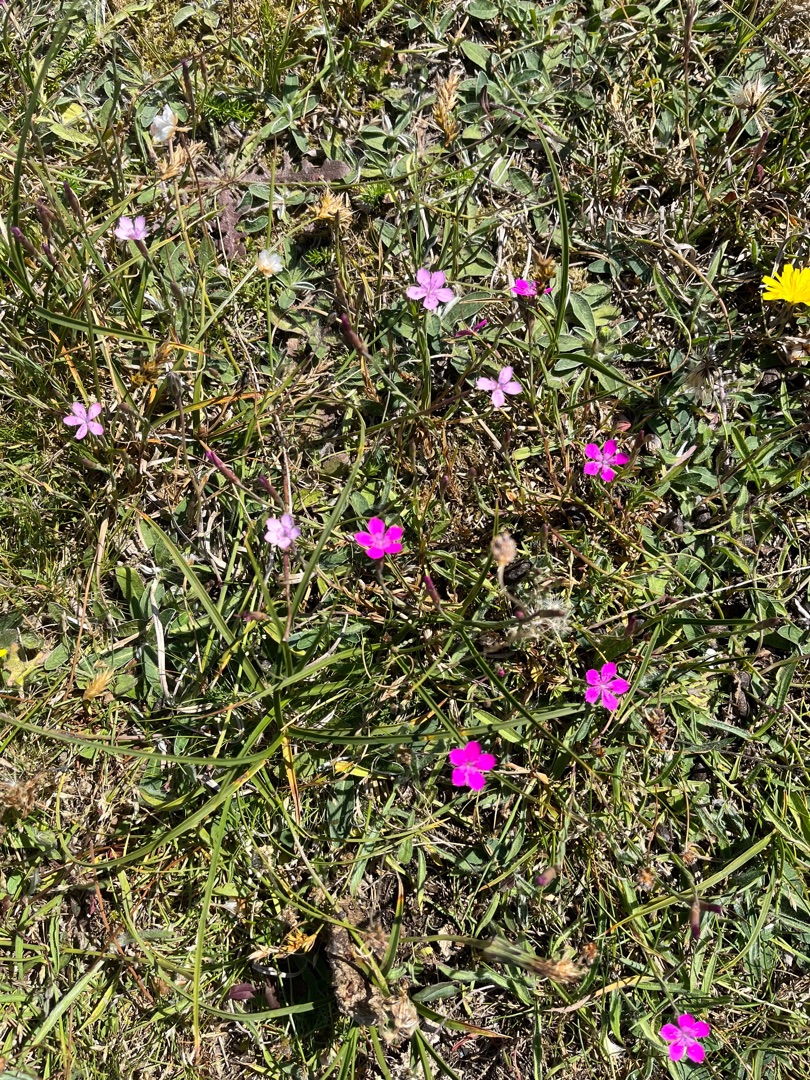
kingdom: Plantae
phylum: Tracheophyta
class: Magnoliopsida
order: Caryophyllales
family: Caryophyllaceae
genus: Dianthus
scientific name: Dianthus deltoides
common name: Bakke-nellike
